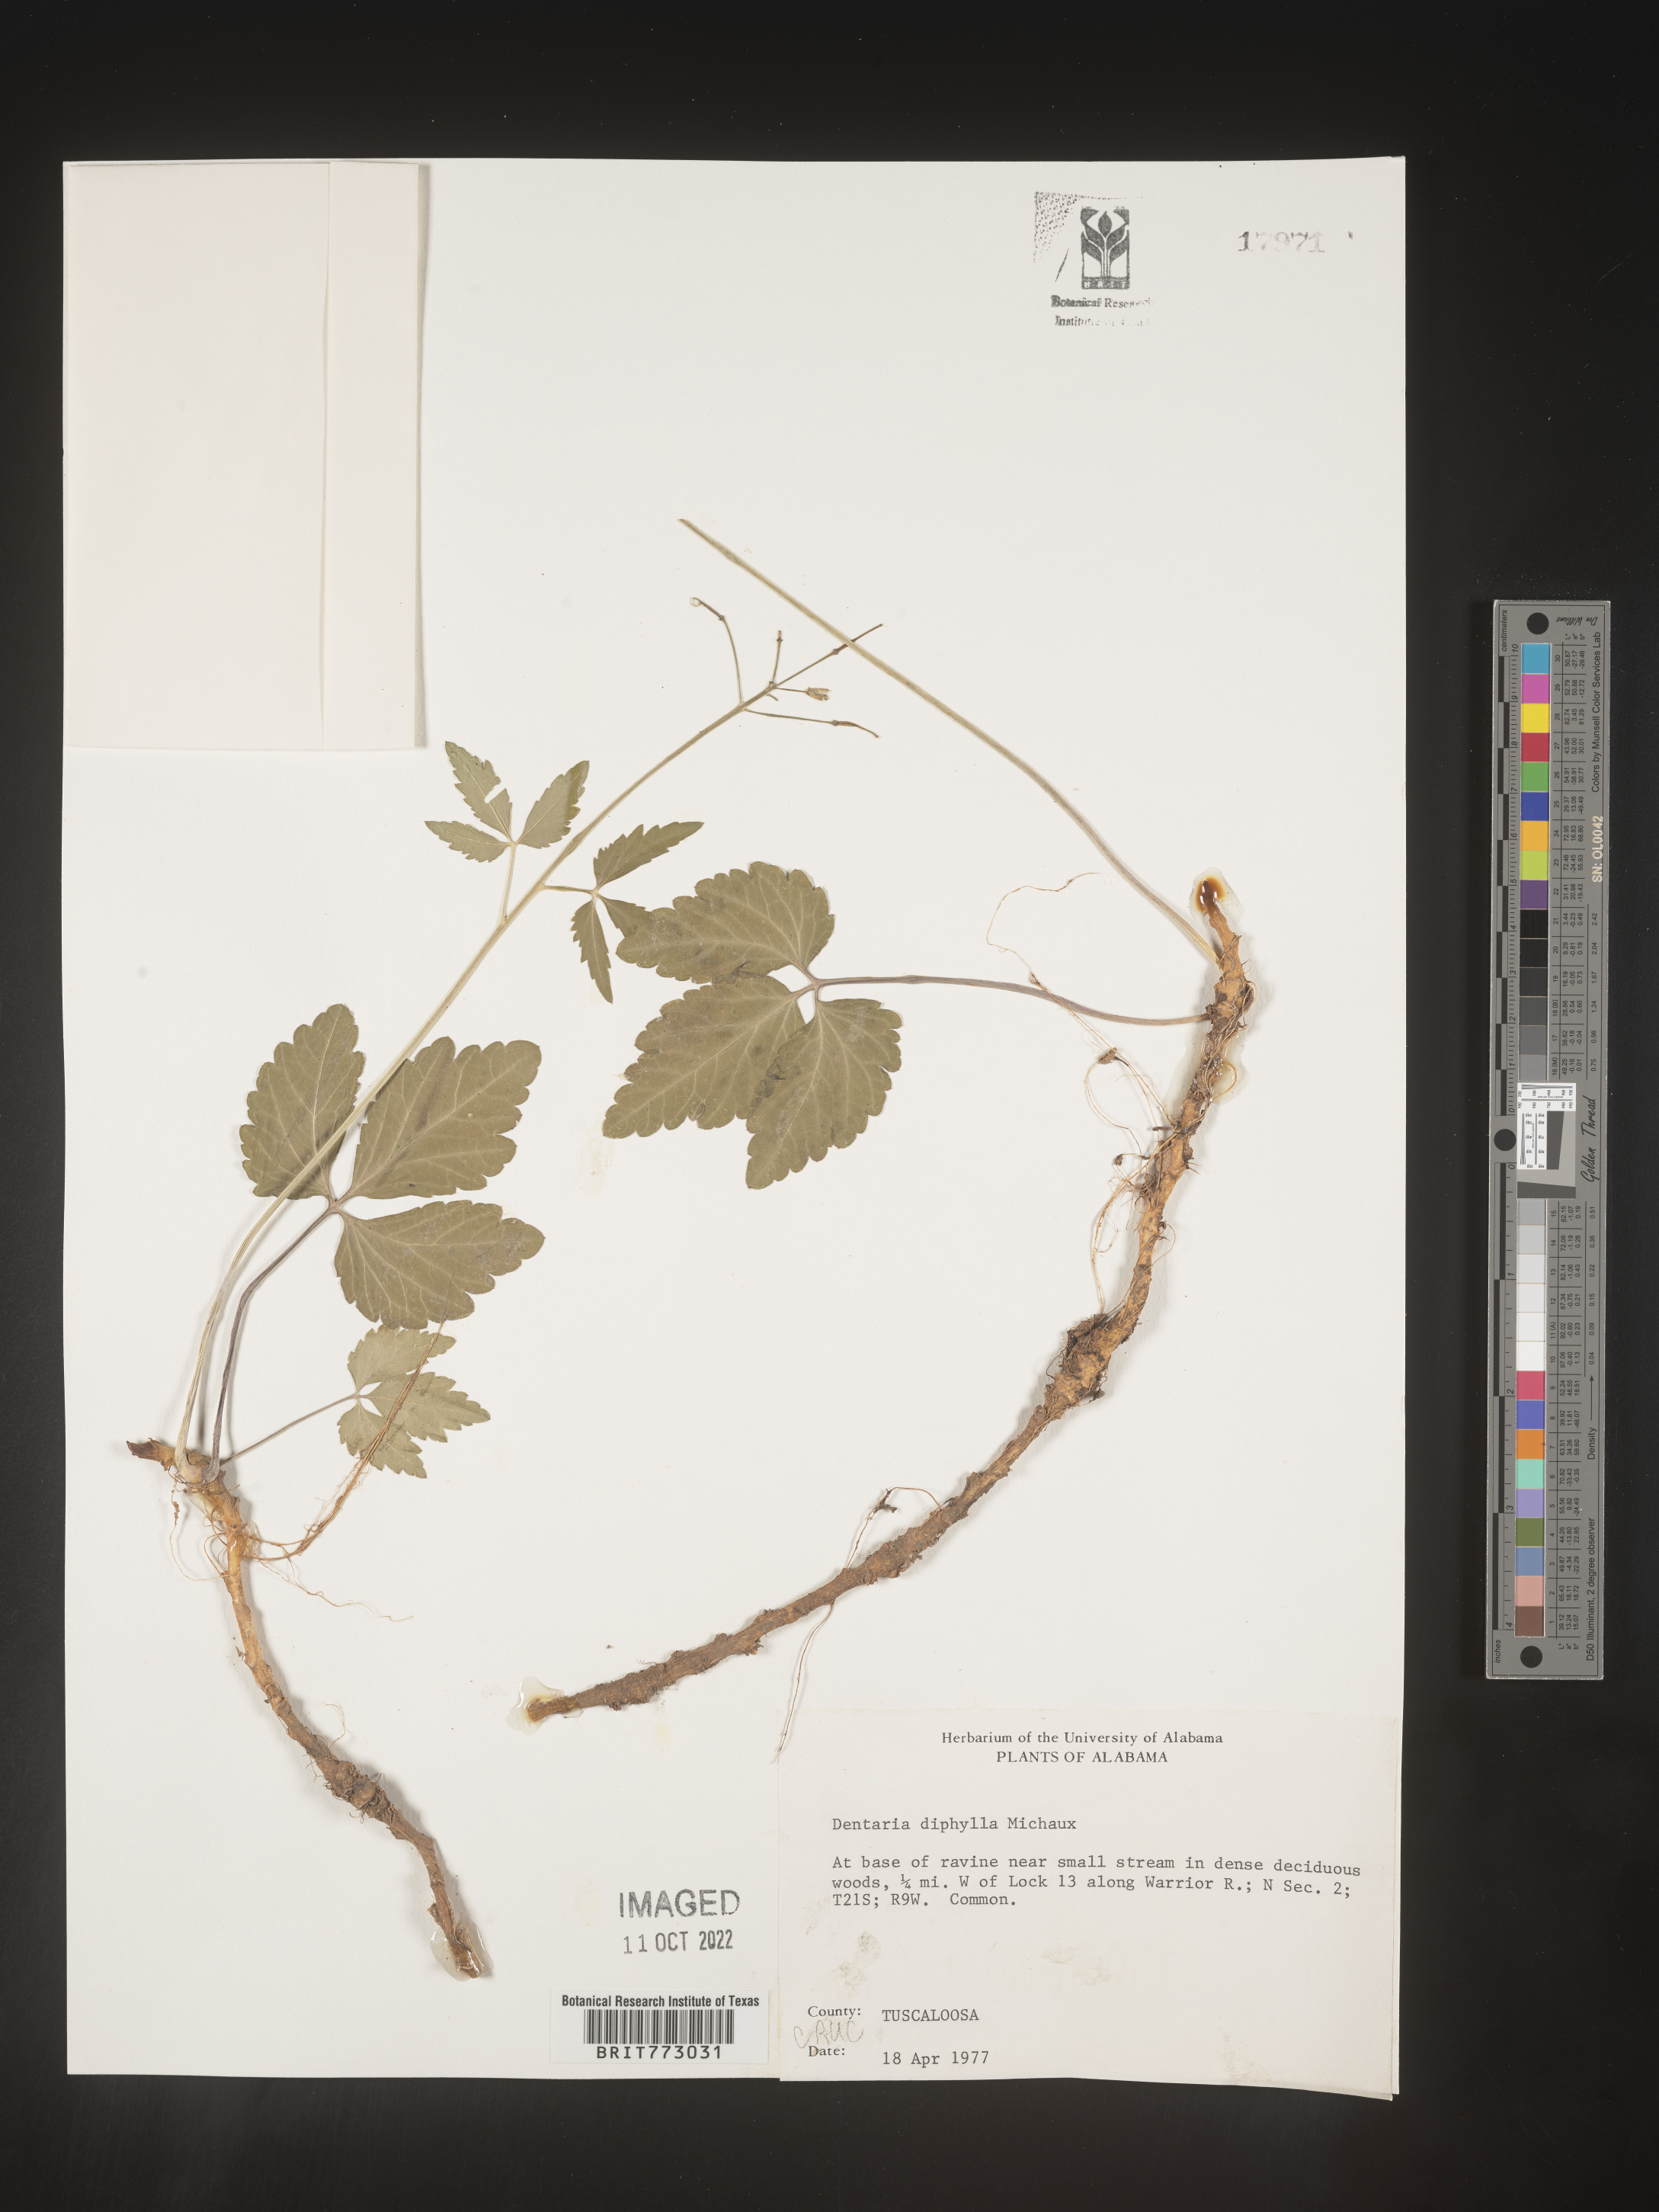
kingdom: Plantae
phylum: Tracheophyta
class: Magnoliopsida
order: Brassicales
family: Brassicaceae
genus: Cardamine
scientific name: Cardamine diphylla
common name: Broad-leaved toothwort
